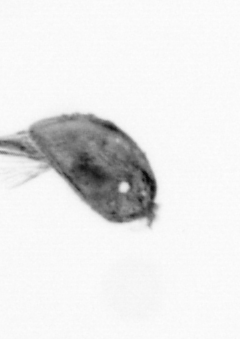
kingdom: Animalia
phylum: Arthropoda
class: Maxillopoda
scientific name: Maxillopoda
